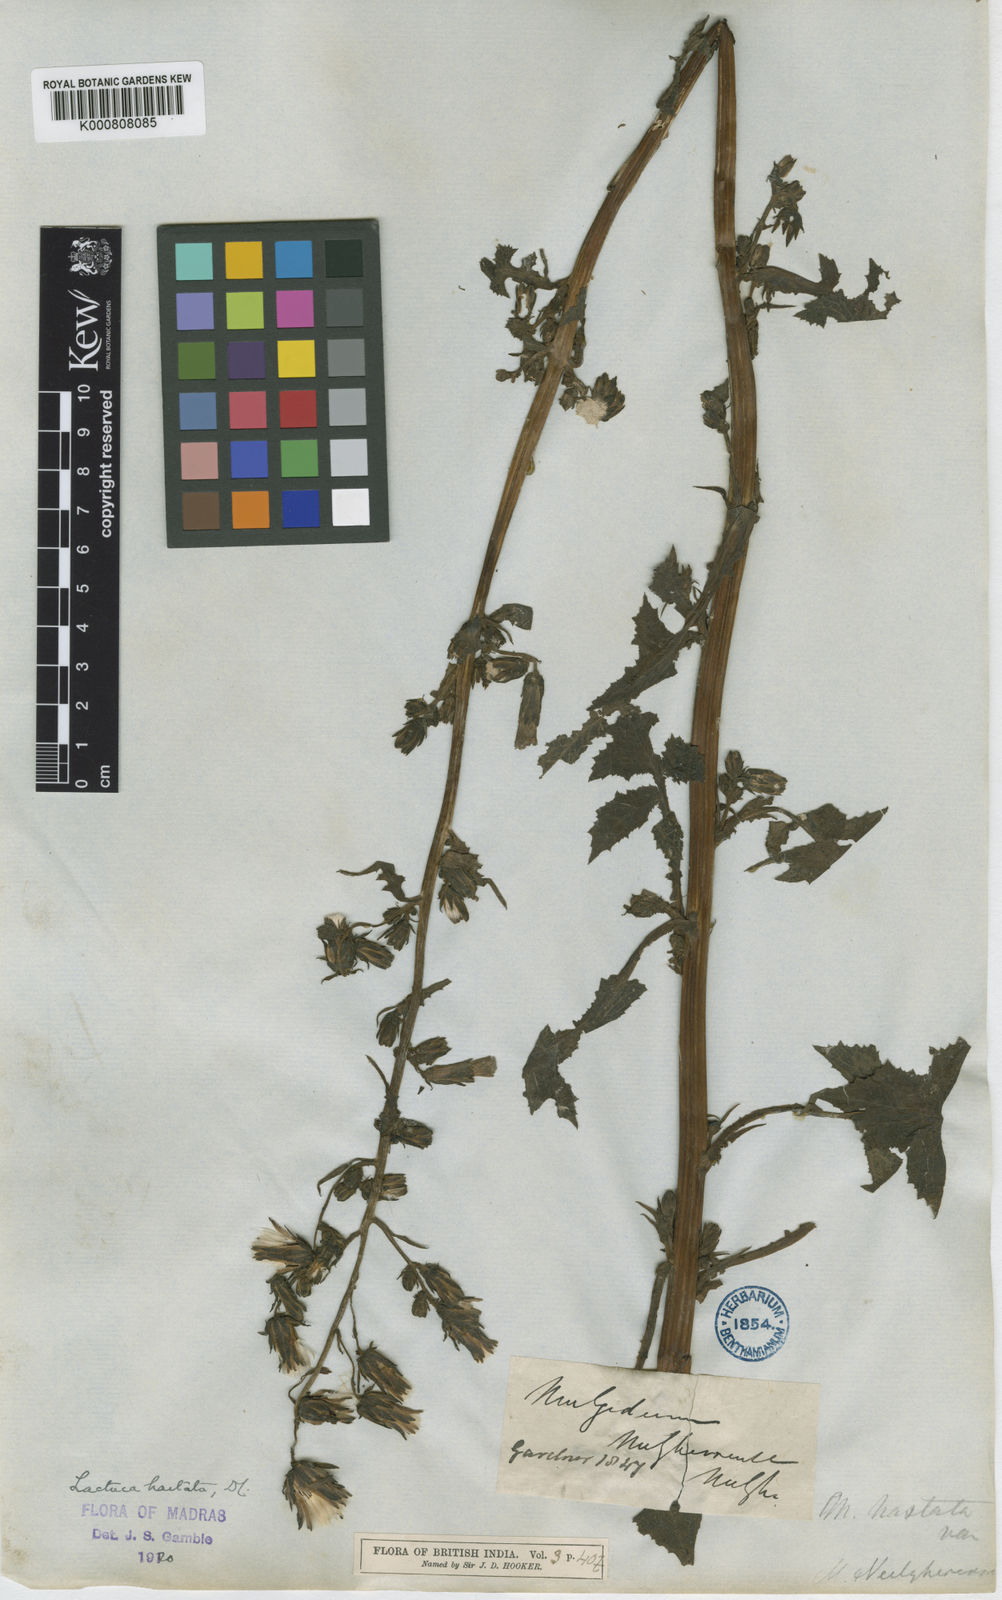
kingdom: Plantae
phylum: Tracheophyta
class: Magnoliopsida
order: Asterales
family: Asteraceae
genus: Melanoseris
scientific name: Melanoseris cyanea
